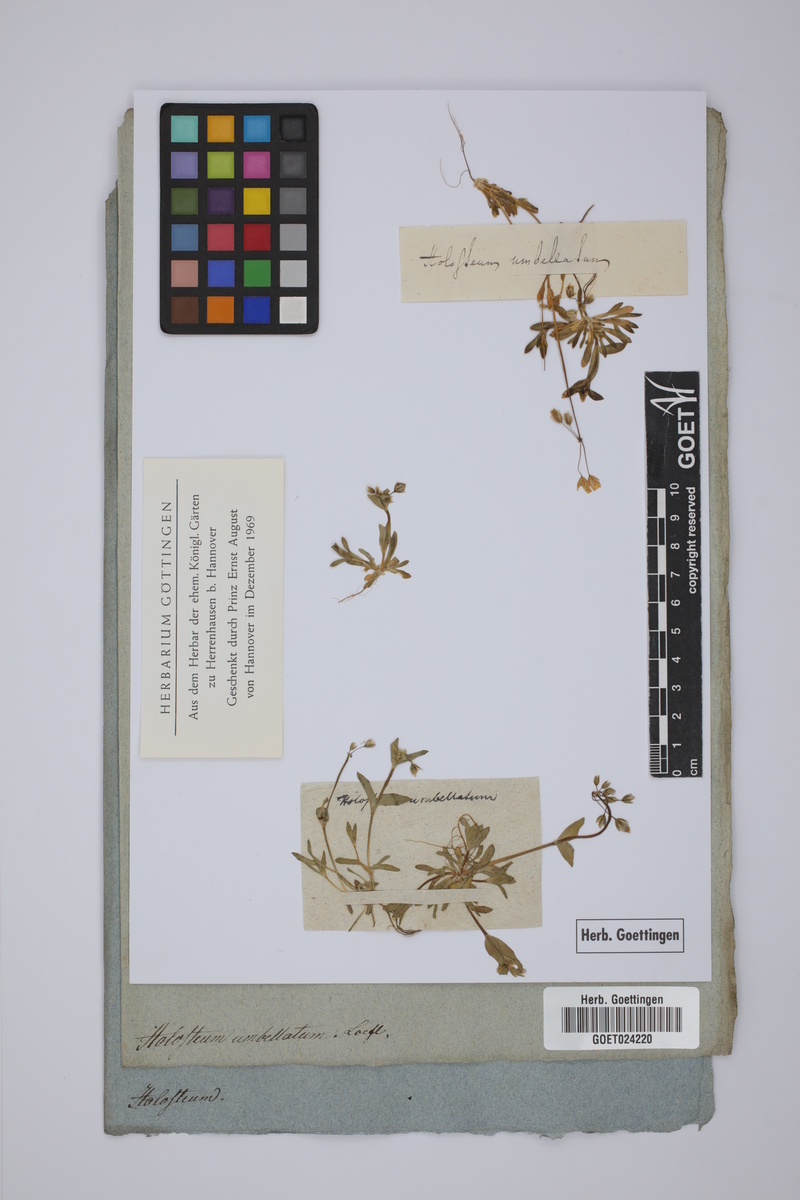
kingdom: Plantae
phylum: Tracheophyta
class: Magnoliopsida
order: Caryophyllales
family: Caryophyllaceae
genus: Holosteum
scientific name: Holosteum umbellatum
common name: Jagged chickweed
